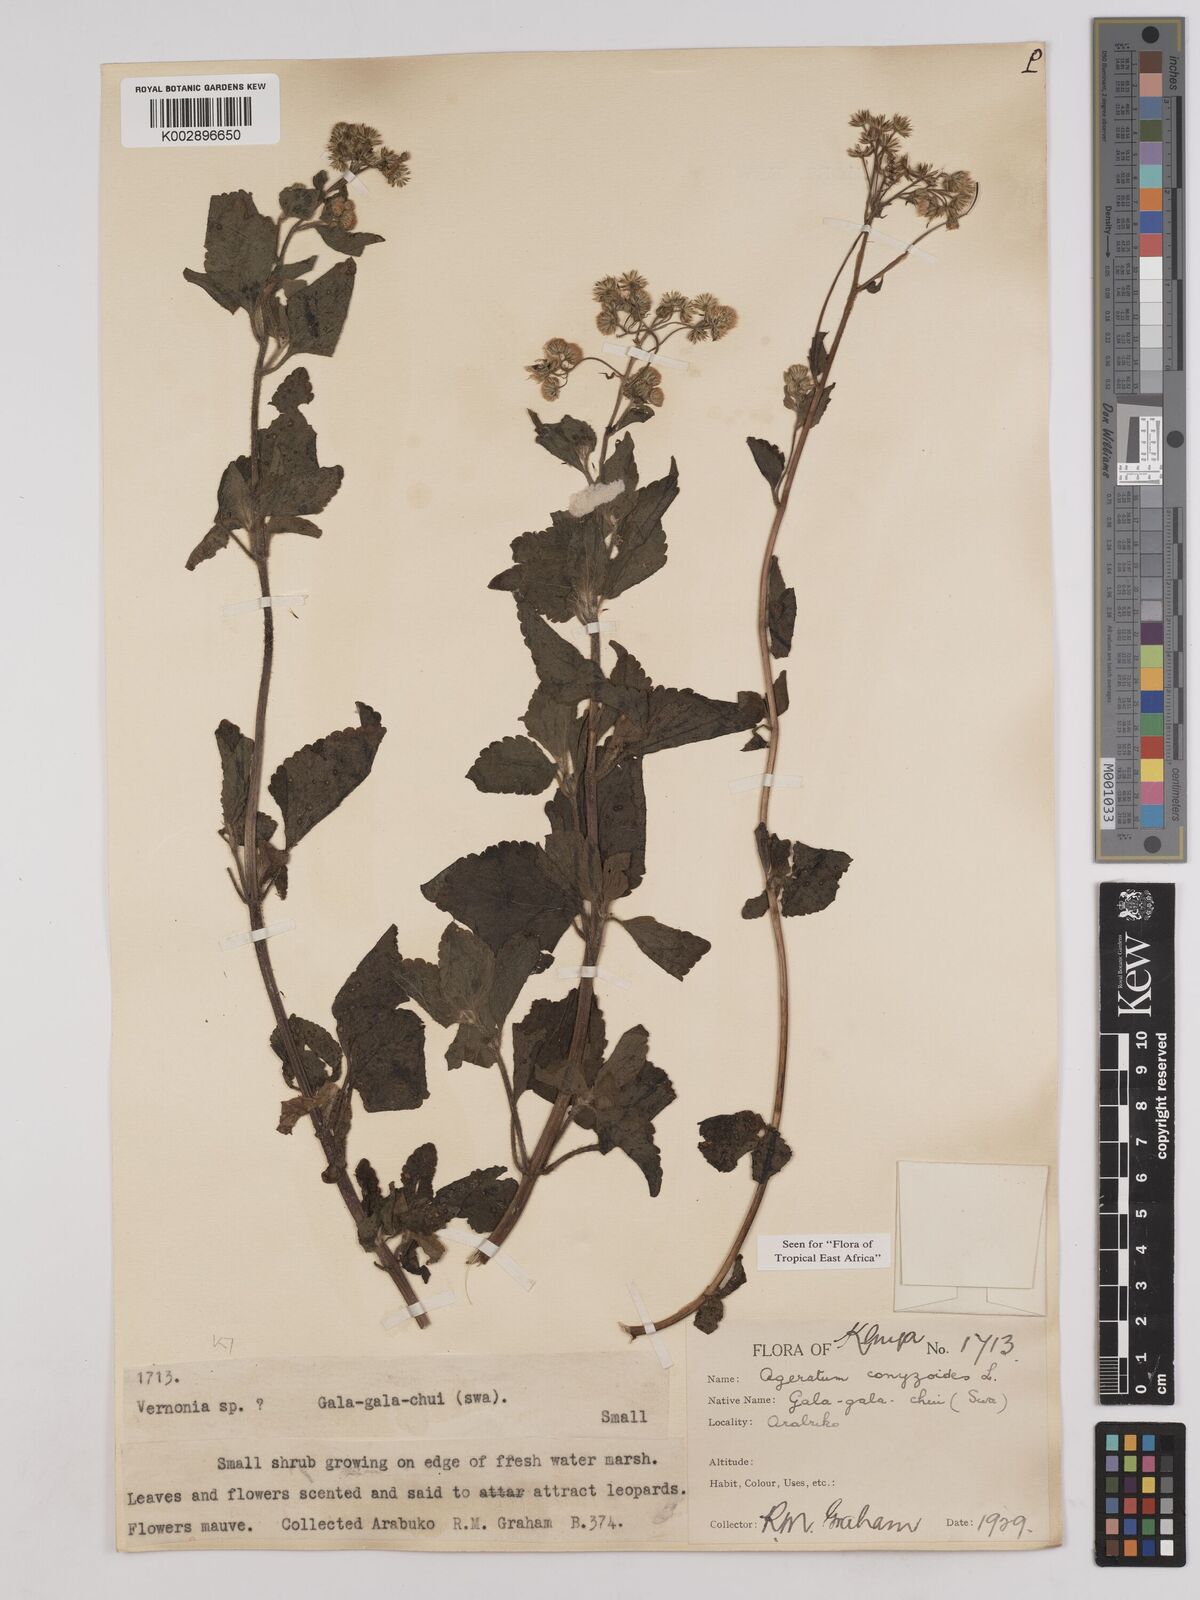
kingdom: Plantae
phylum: Tracheophyta
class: Magnoliopsida
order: Asterales
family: Asteraceae
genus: Ageratum
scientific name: Ageratum conyzoides
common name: Tropical whiteweed
